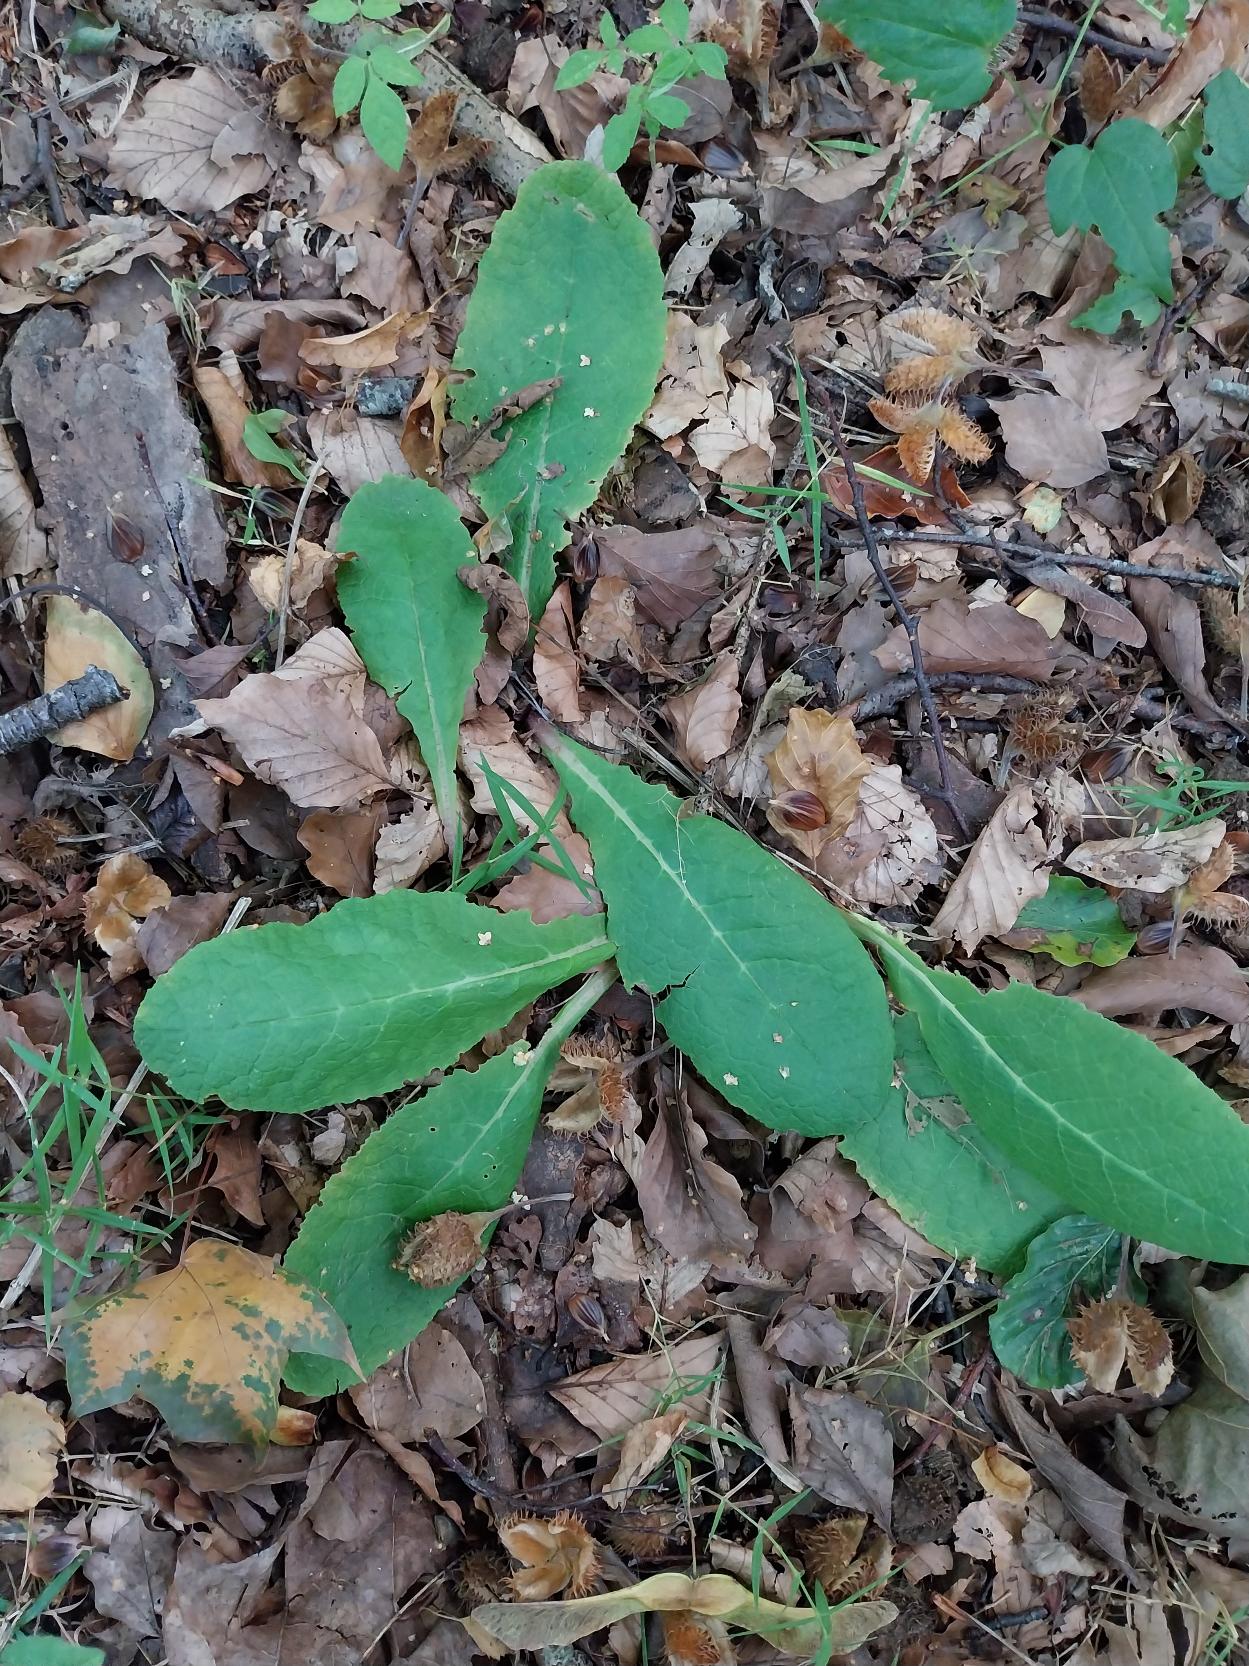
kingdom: Plantae
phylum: Tracheophyta
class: Magnoliopsida
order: Ericales
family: Primulaceae
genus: Primula
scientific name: Primula vulgaris
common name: Storblomstret kodriver
